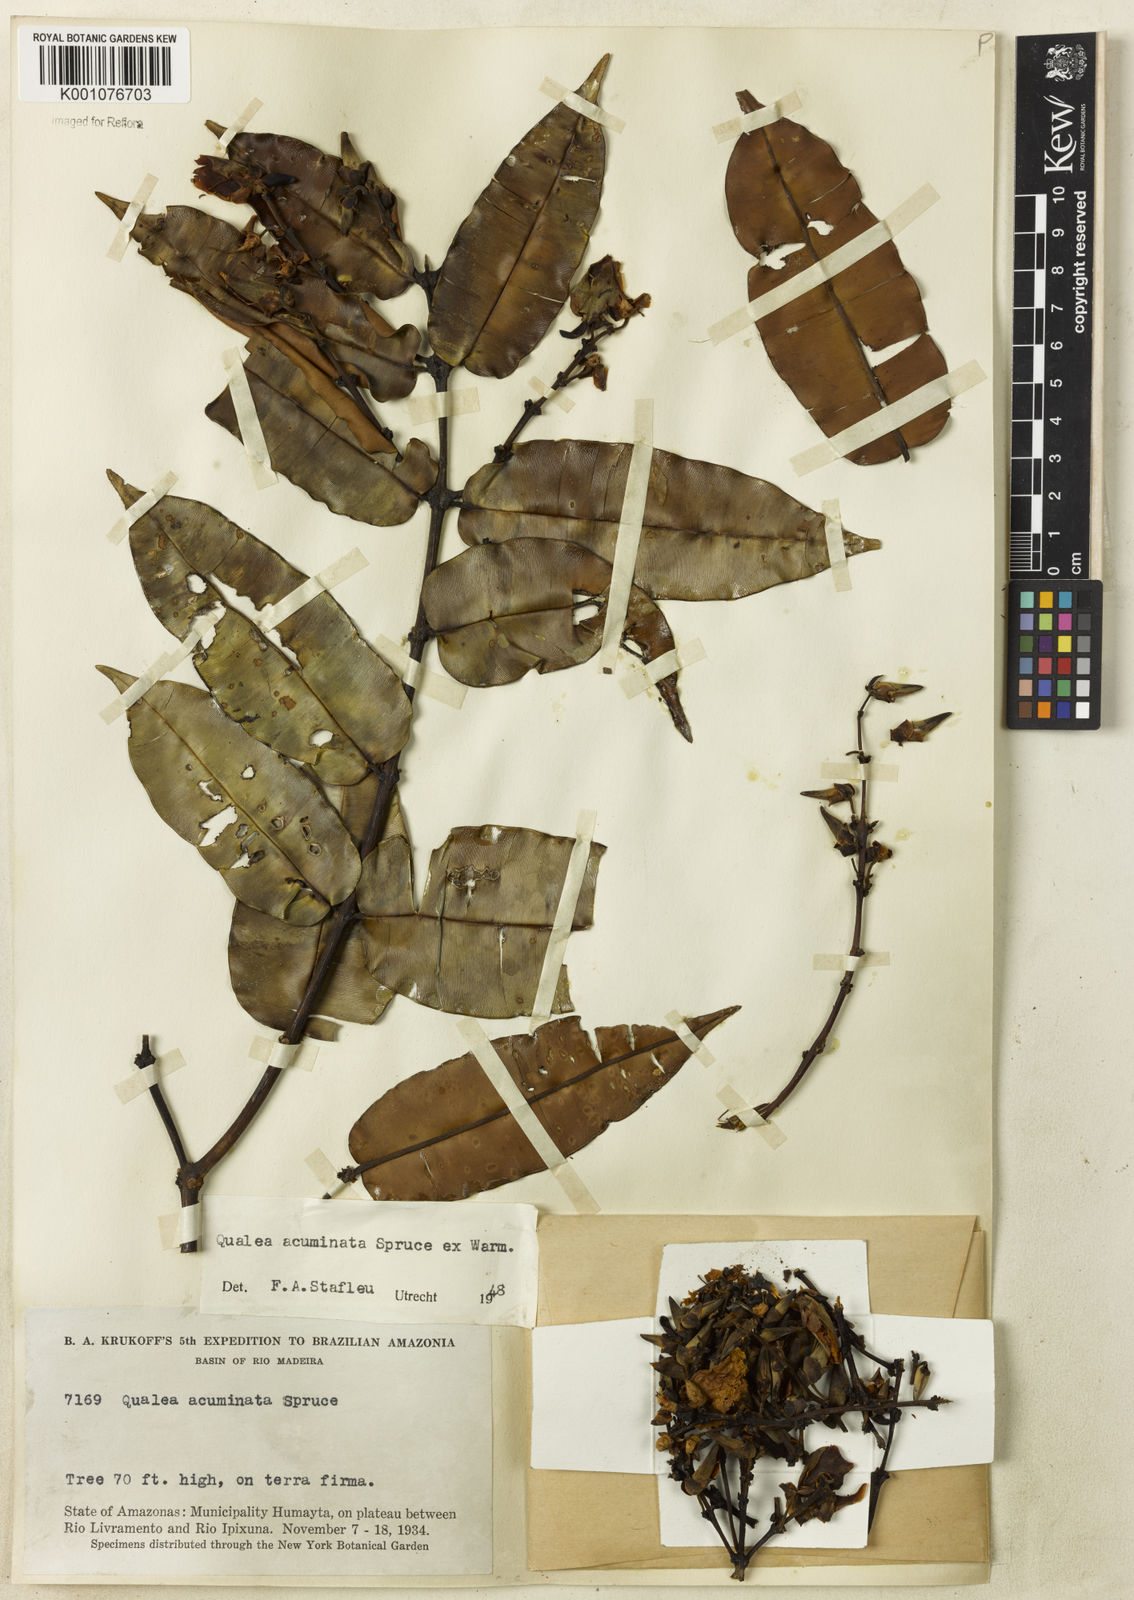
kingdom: Plantae
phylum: Tracheophyta
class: Magnoliopsida
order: Myrtales
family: Vochysiaceae
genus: Qualea
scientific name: Qualea acuminata
